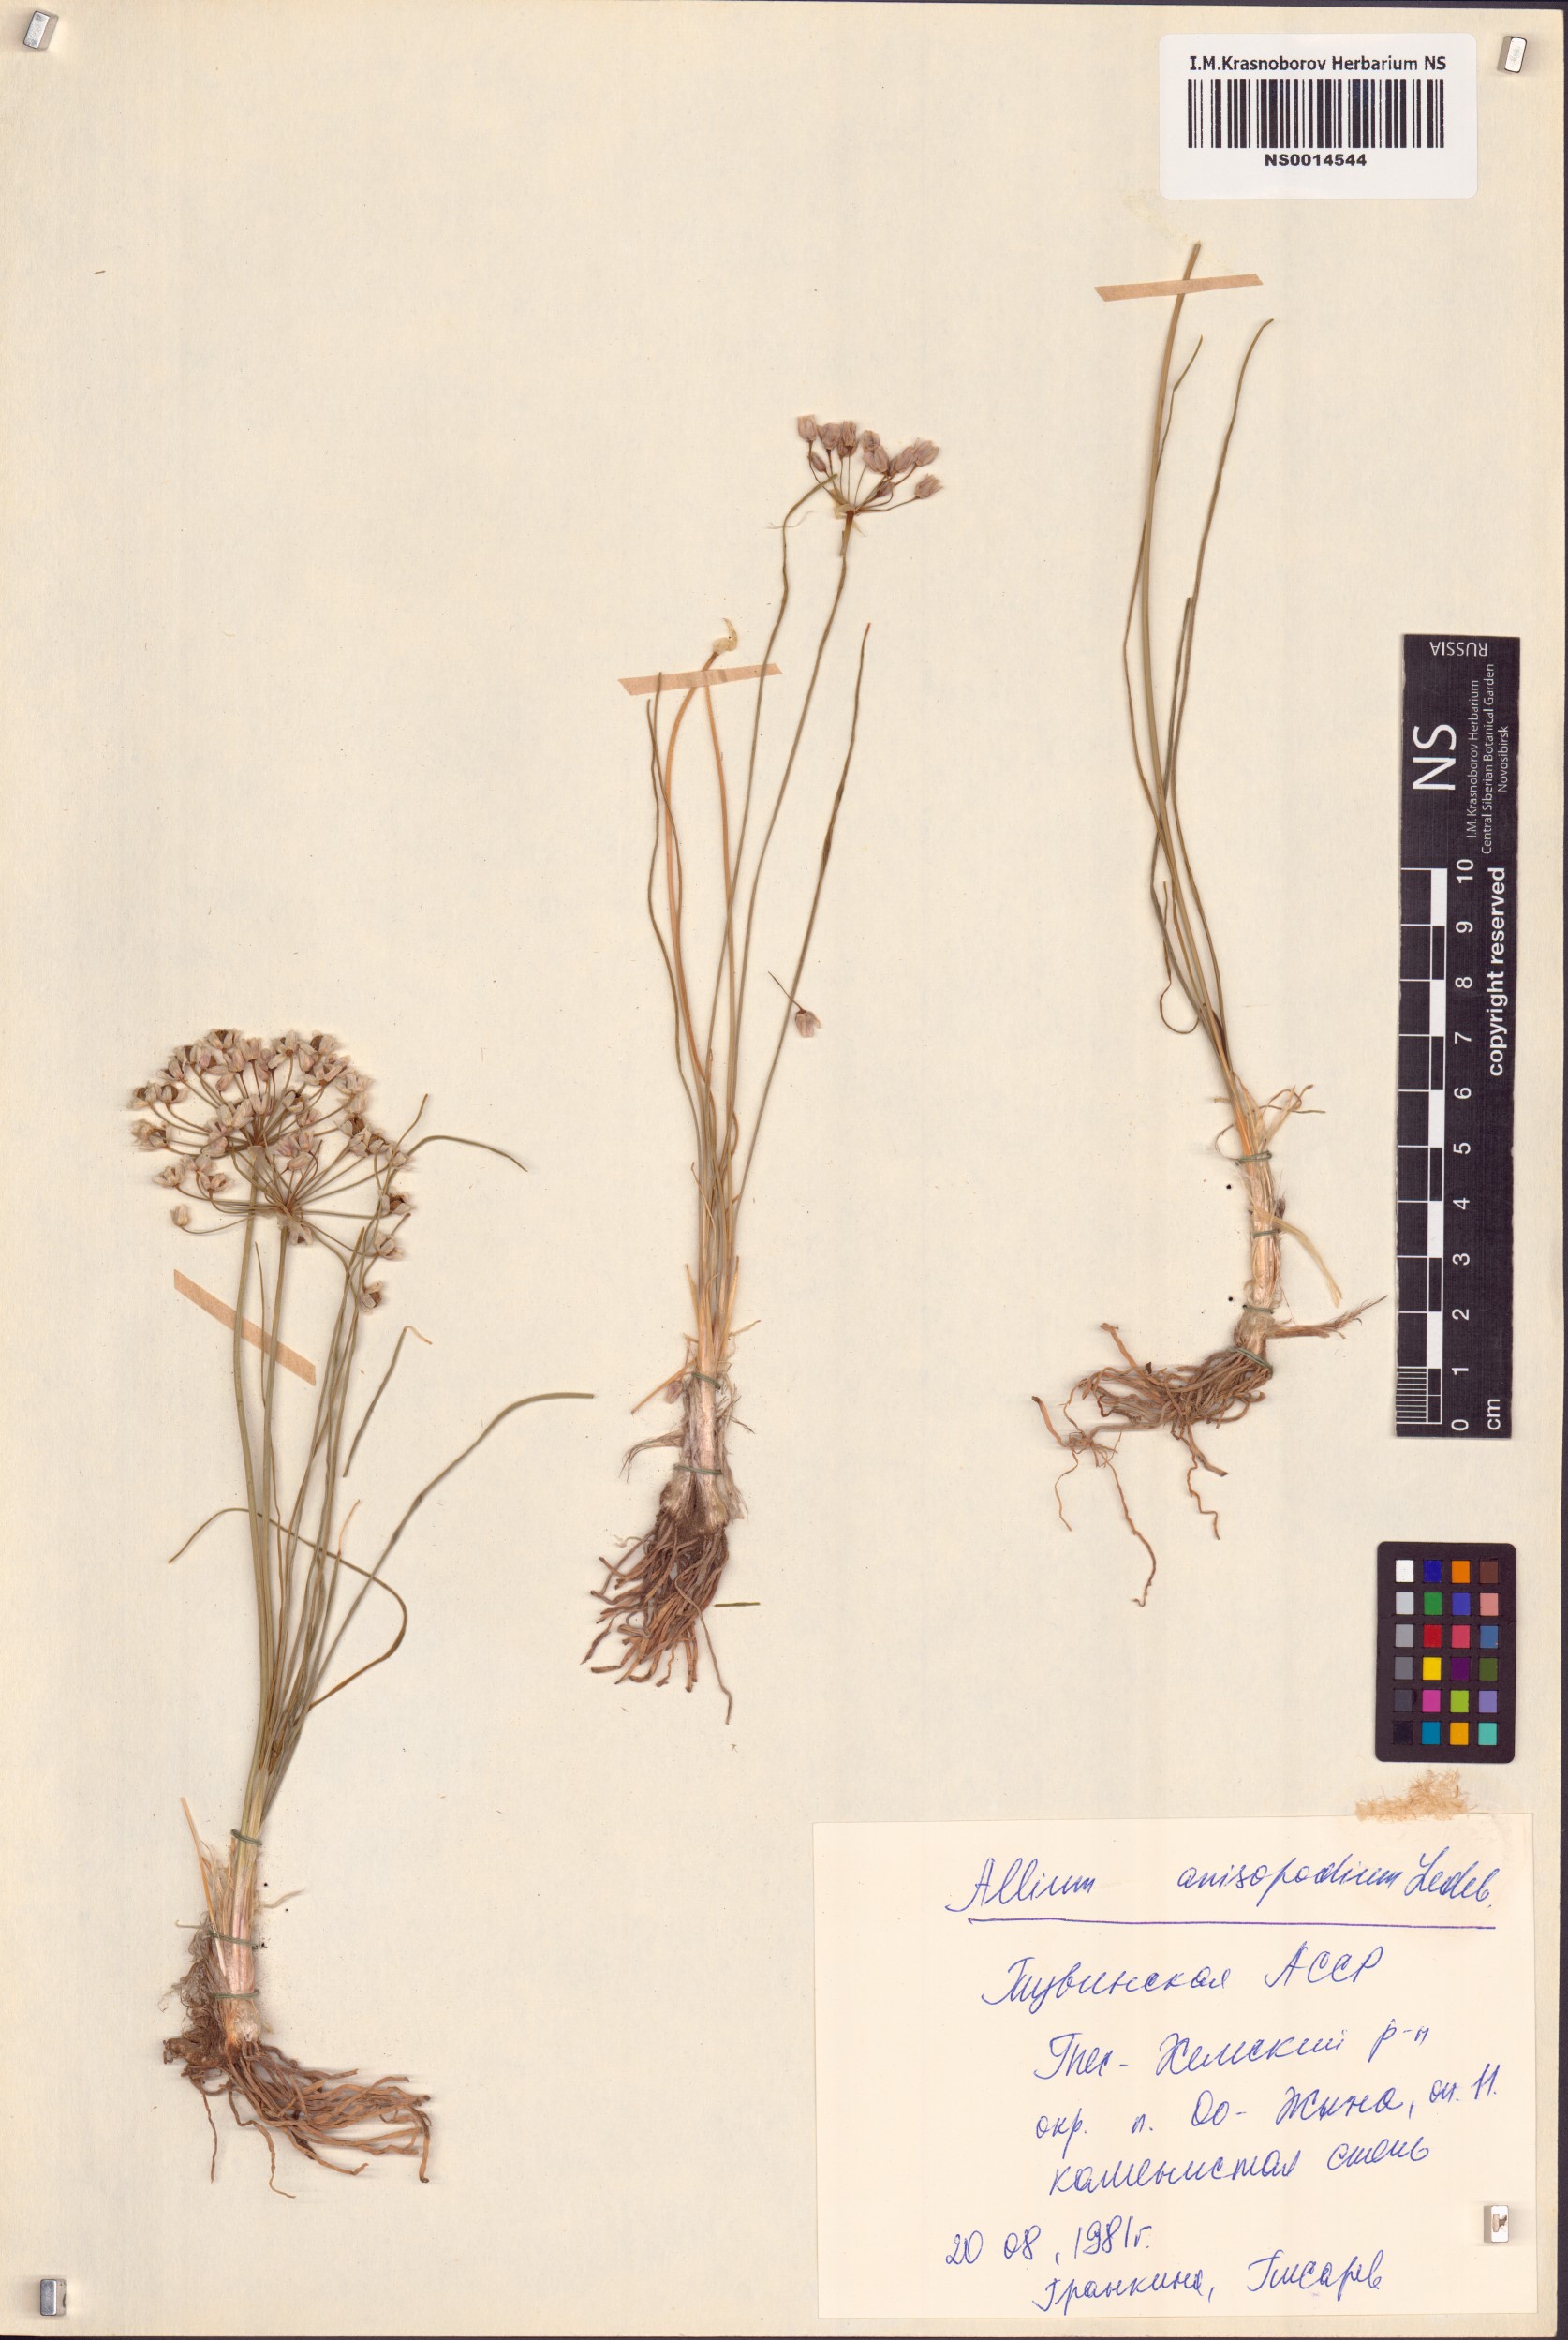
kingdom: Plantae
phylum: Tracheophyta
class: Liliopsida
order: Asparagales
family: Amaryllidaceae
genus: Allium
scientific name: Allium anisopodium
